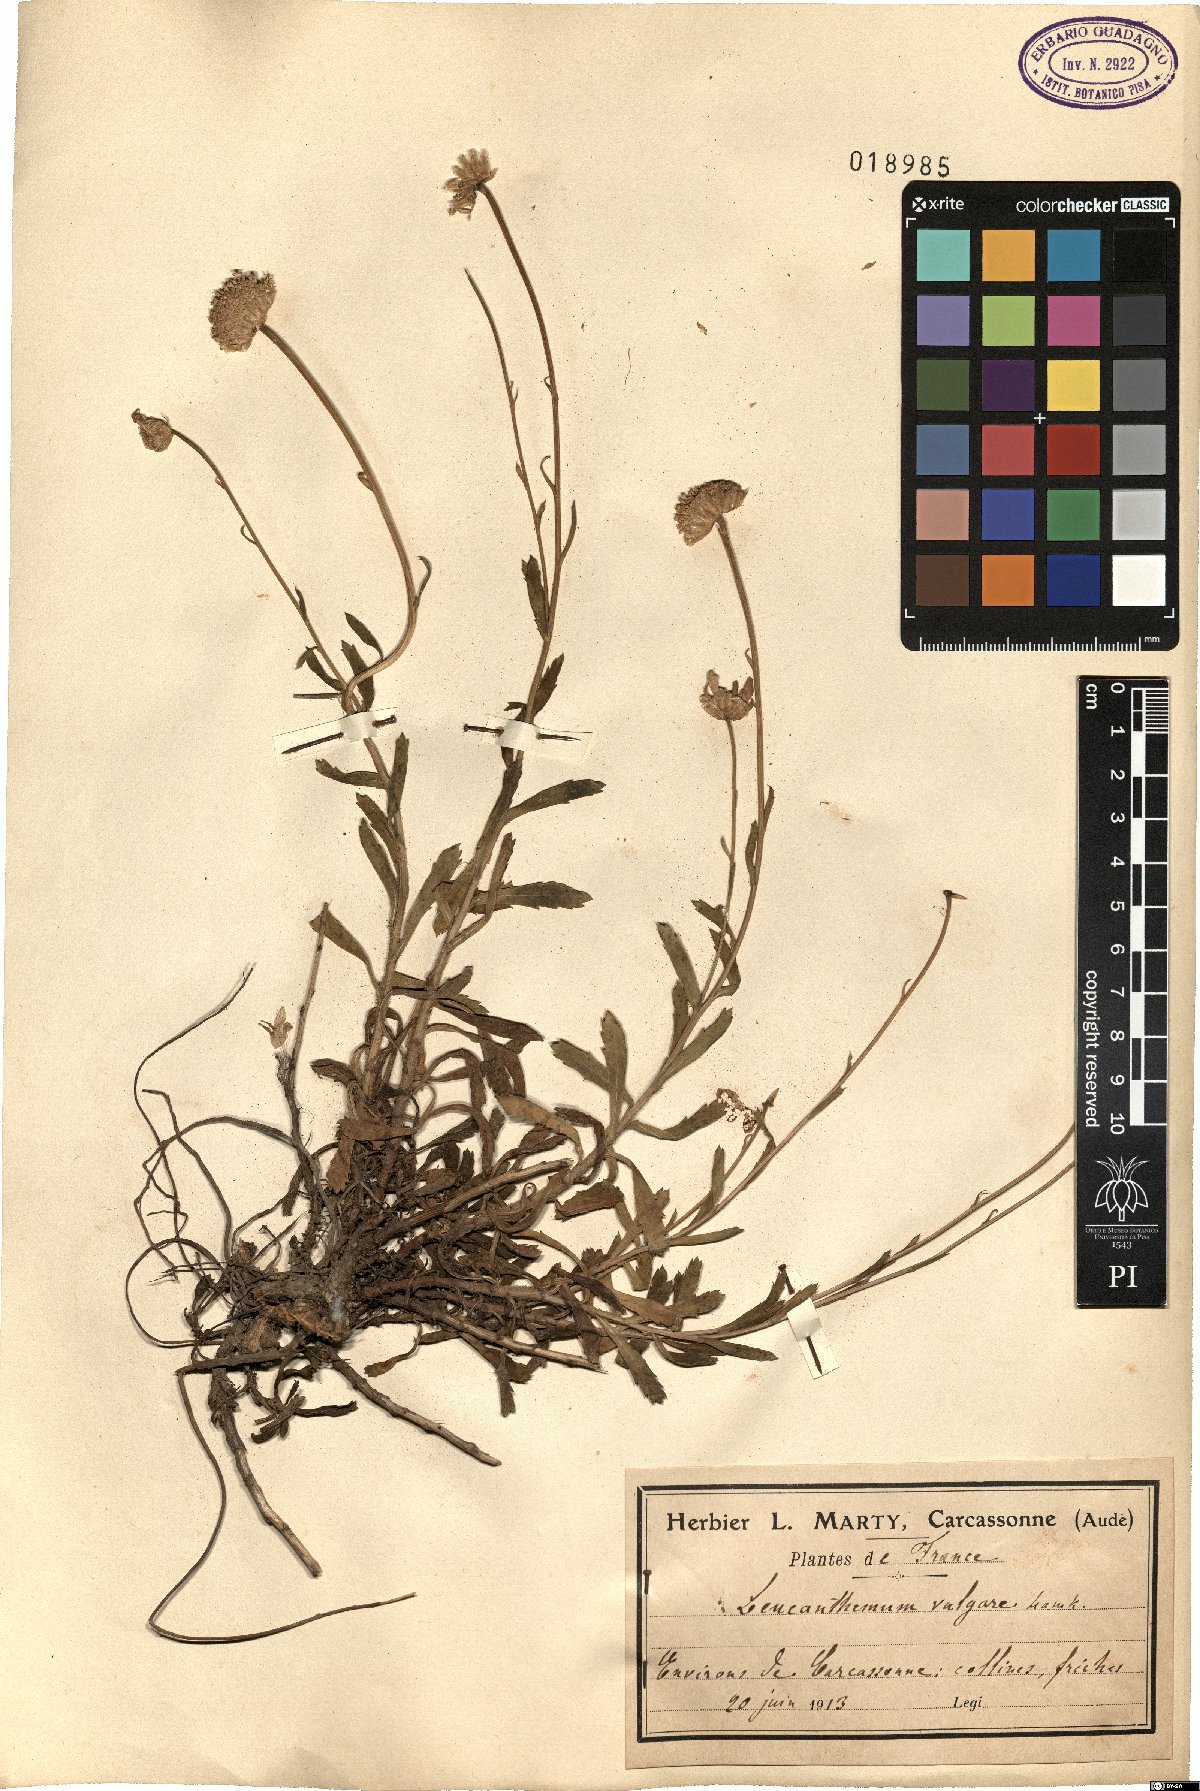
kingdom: Plantae
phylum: Tracheophyta
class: Magnoliopsida
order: Asterales
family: Asteraceae
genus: Leucanthemum
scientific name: Leucanthemum vulgare
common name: Oxeye daisy
